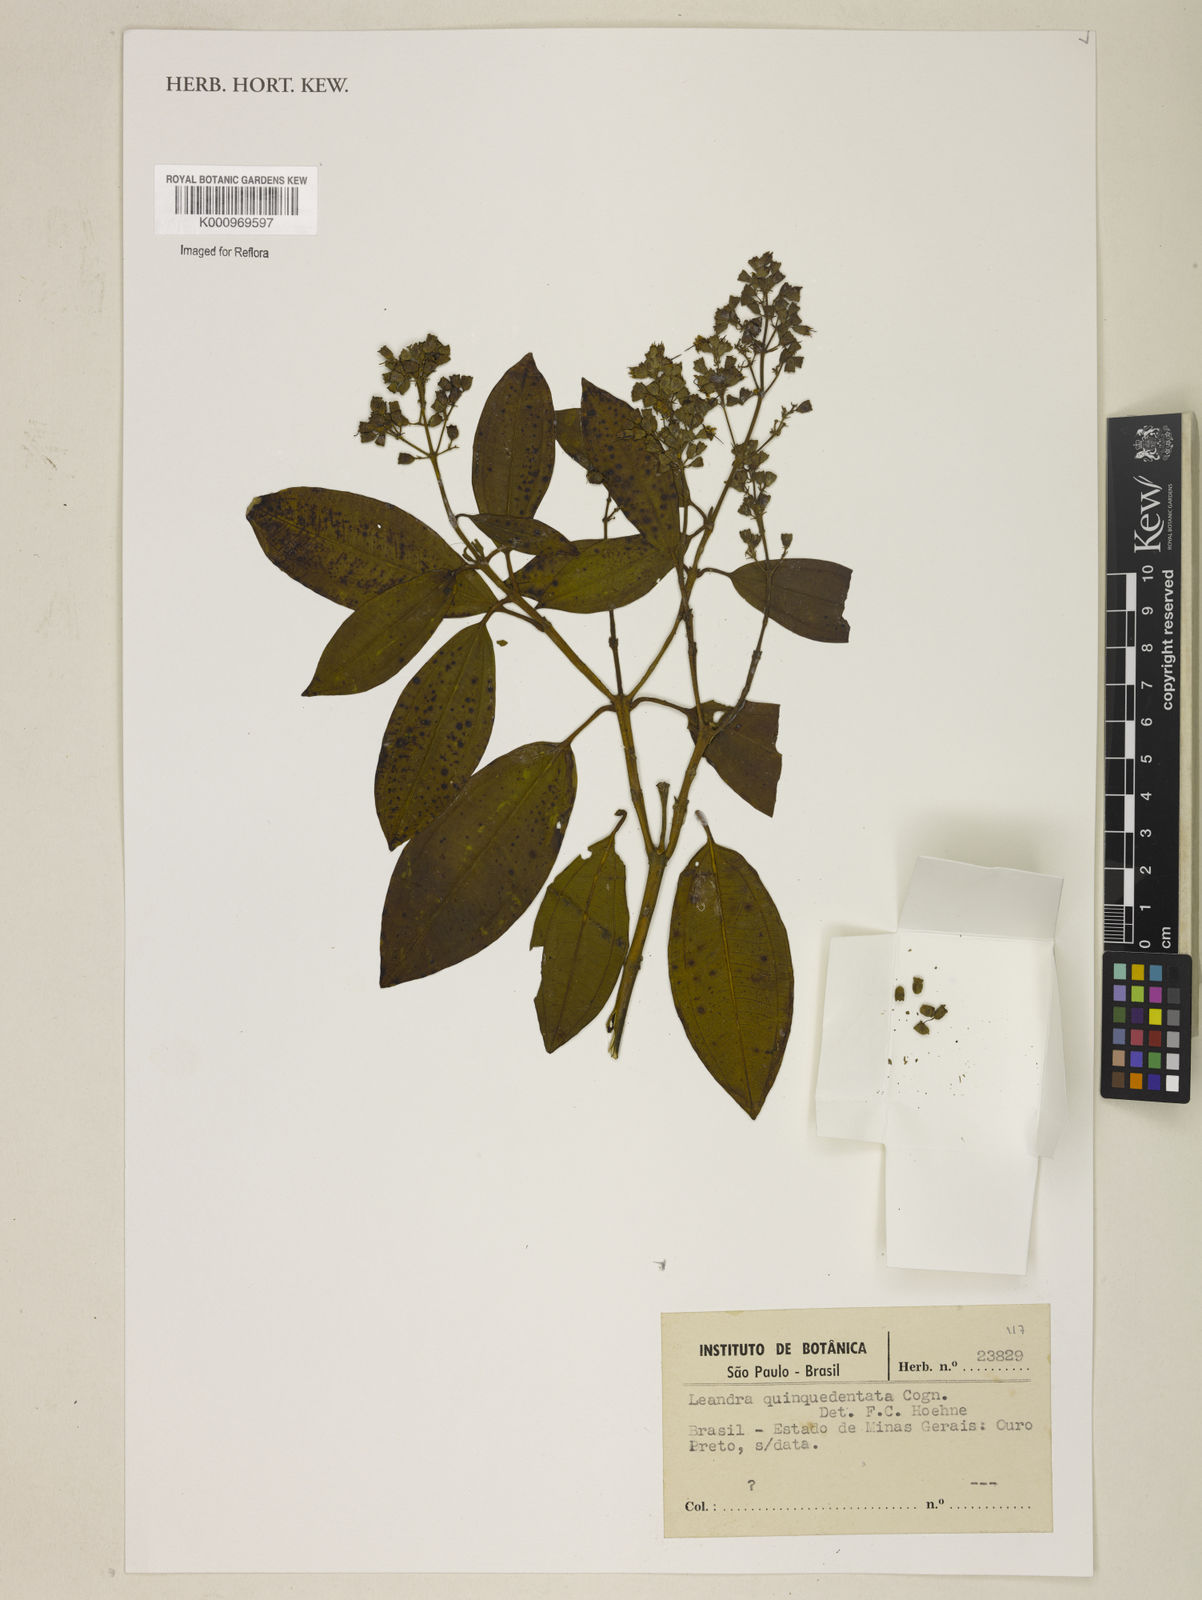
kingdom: Plantae
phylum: Tracheophyta
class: Magnoliopsida
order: Myrtales
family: Melastomataceae
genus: Miconia
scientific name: Miconia quinquedentata
